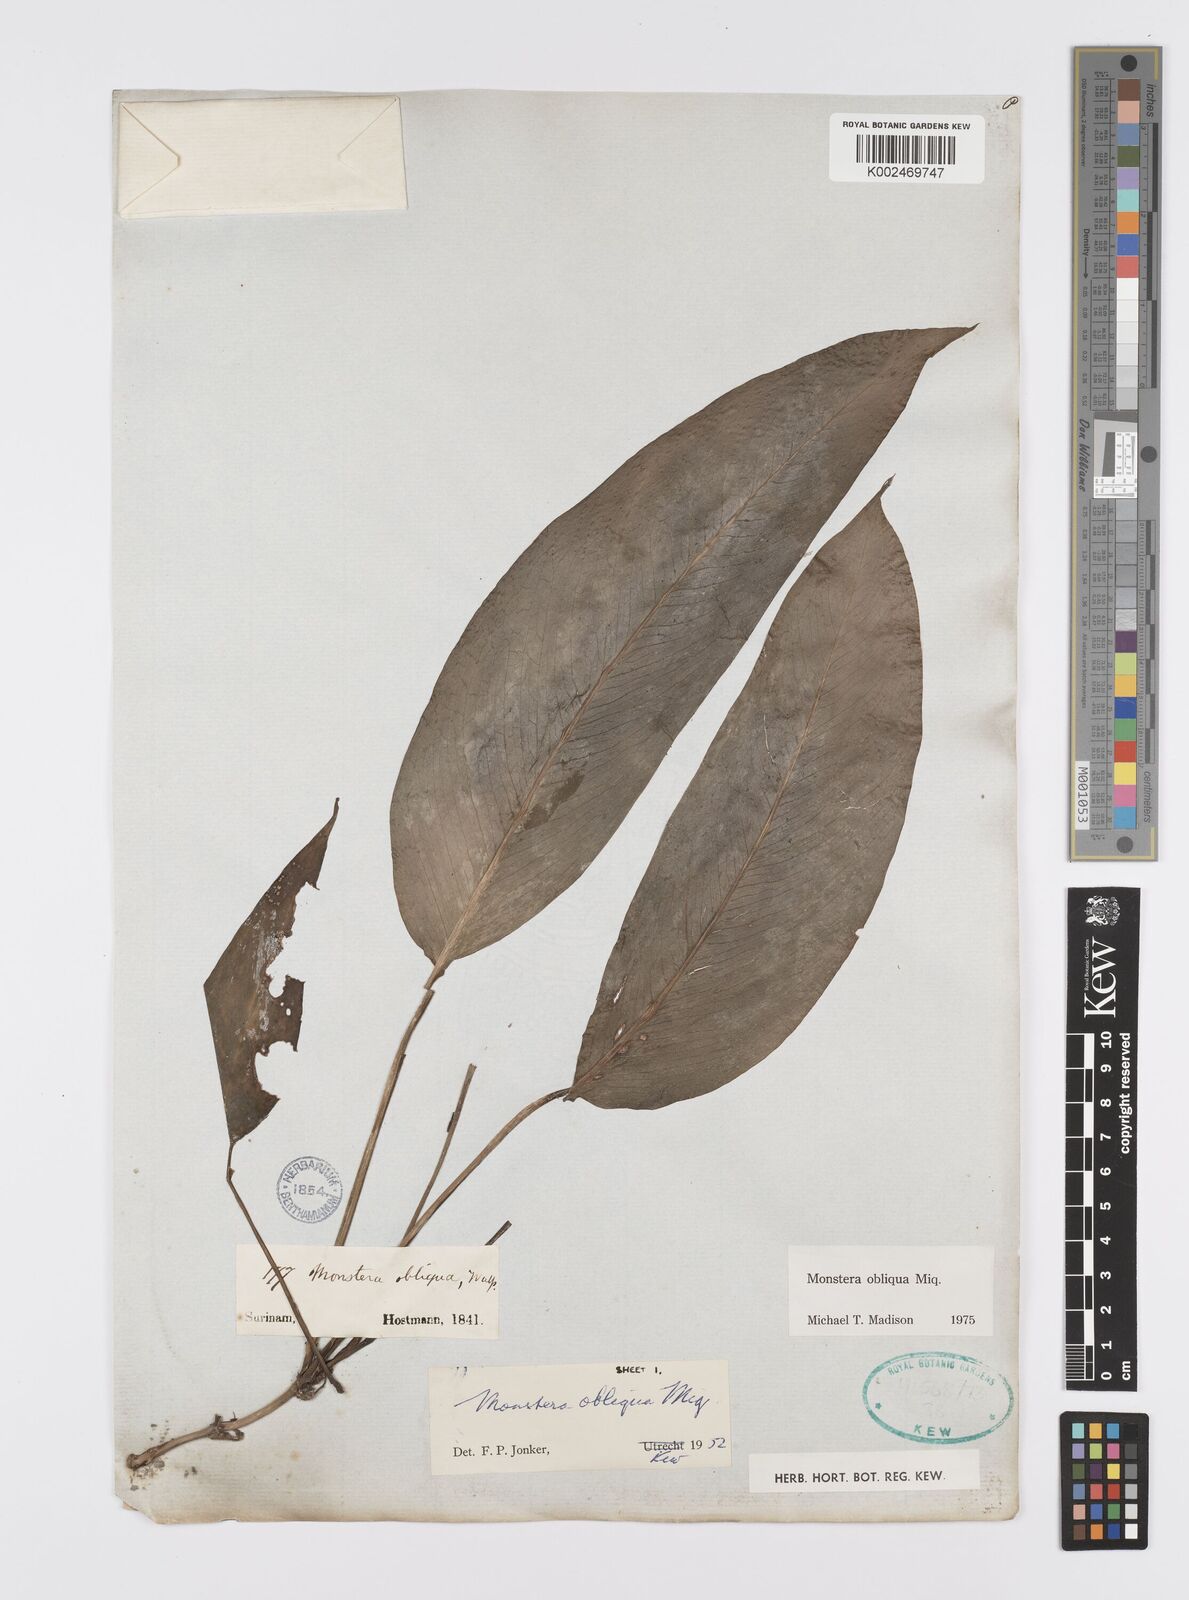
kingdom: Plantae
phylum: Tracheophyta
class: Liliopsida
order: Alismatales
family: Araceae
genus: Monstera
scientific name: Monstera obliqua
